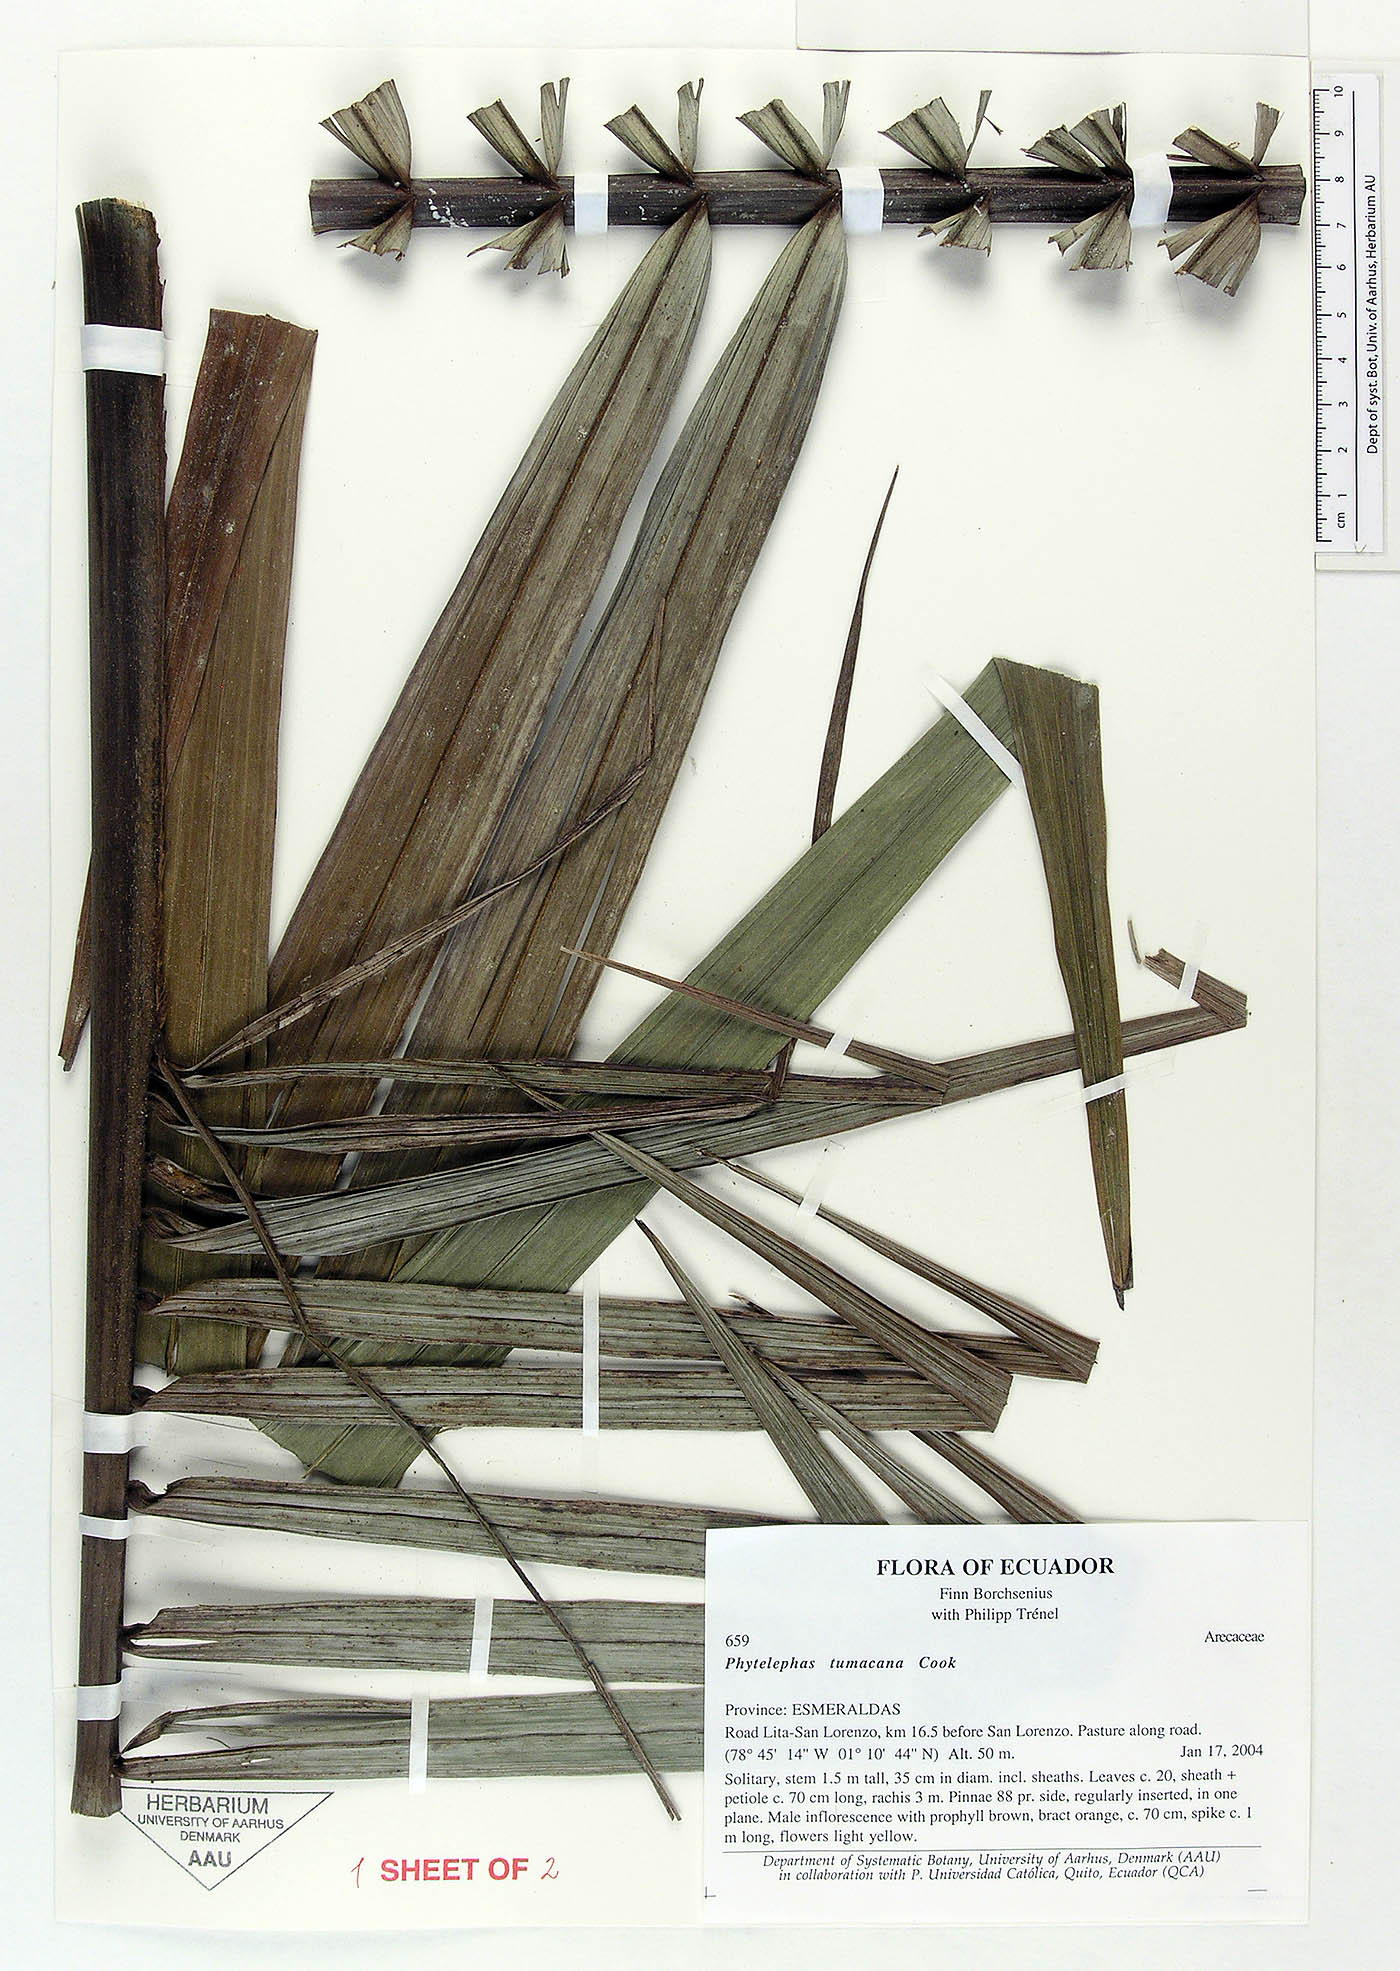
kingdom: Plantae
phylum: Tracheophyta
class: Liliopsida
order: Arecales
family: Arecaceae
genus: Phytelephas
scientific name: Phytelephas tumacana
